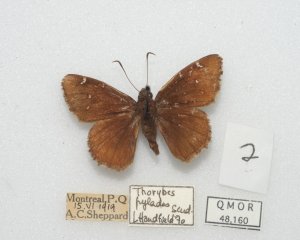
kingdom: Animalia
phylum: Arthropoda
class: Insecta
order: Lepidoptera
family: Hesperiidae
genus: Autochton
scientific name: Autochton
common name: Northern Cloudywing
